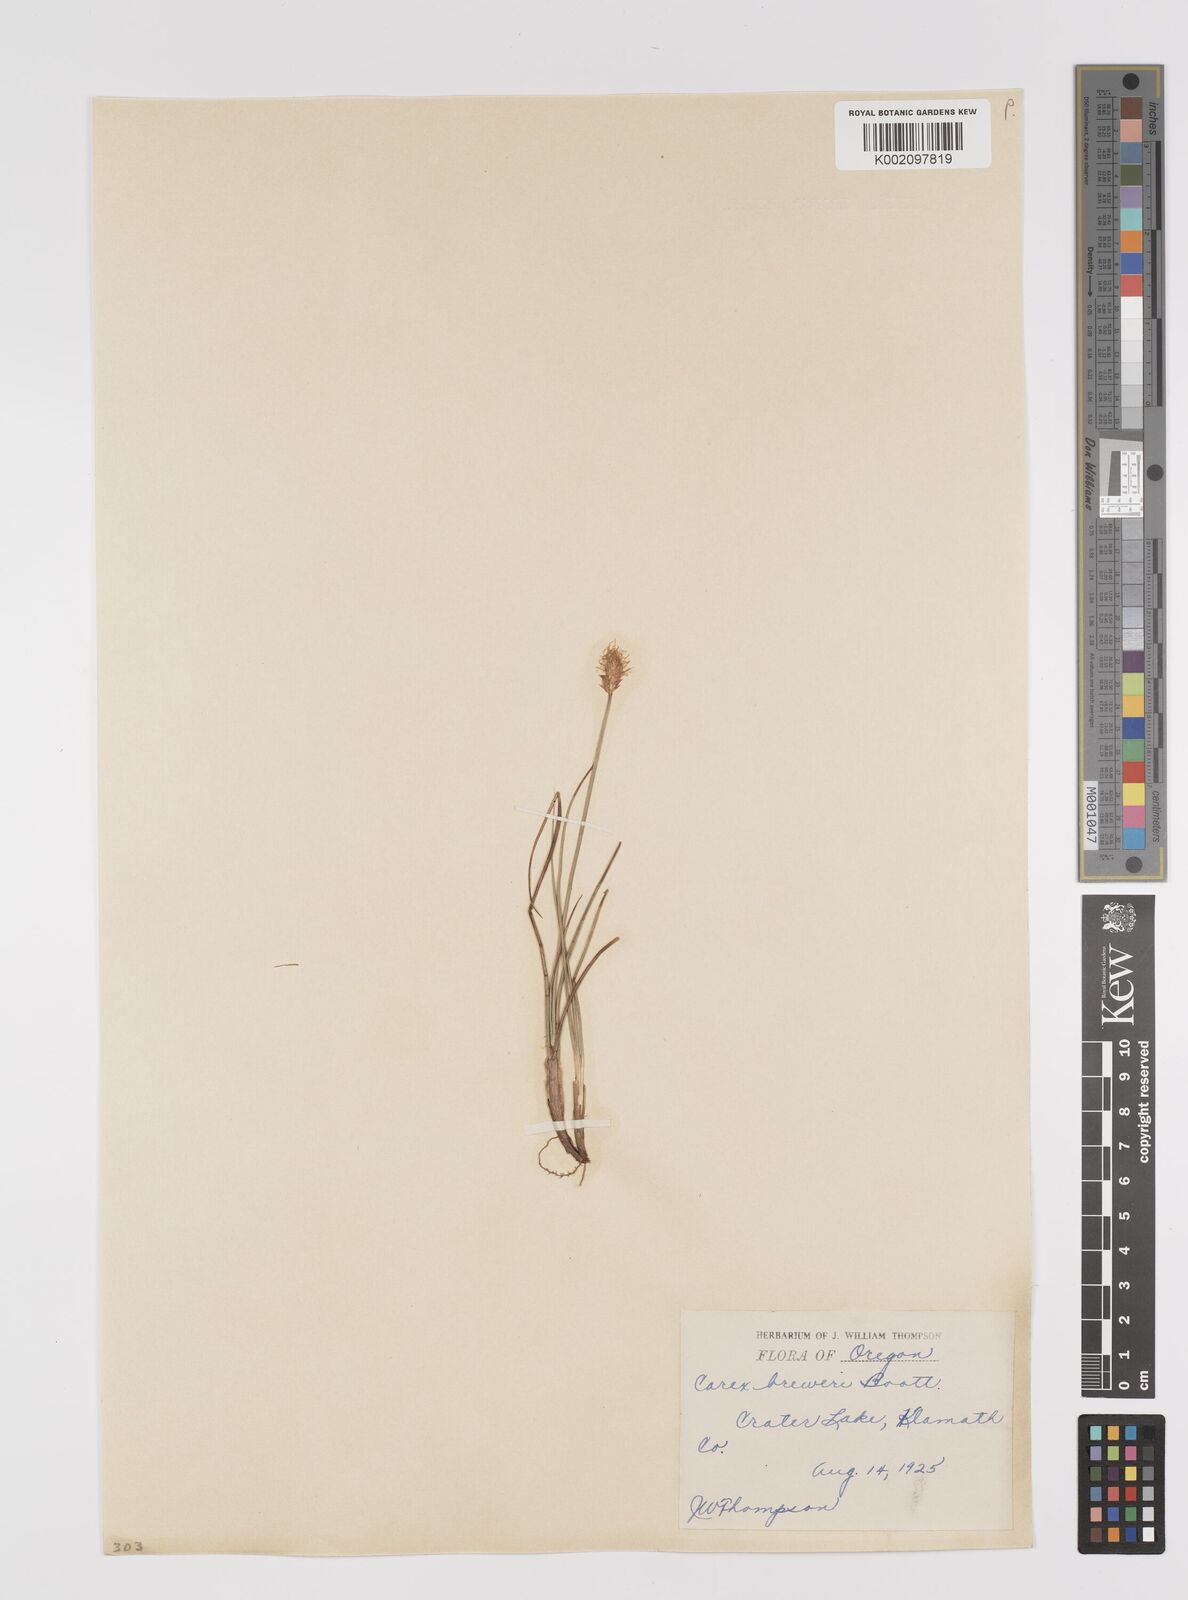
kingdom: Plantae
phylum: Tracheophyta
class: Liliopsida
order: Poales
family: Cyperaceae
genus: Carex
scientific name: Carex breweri
